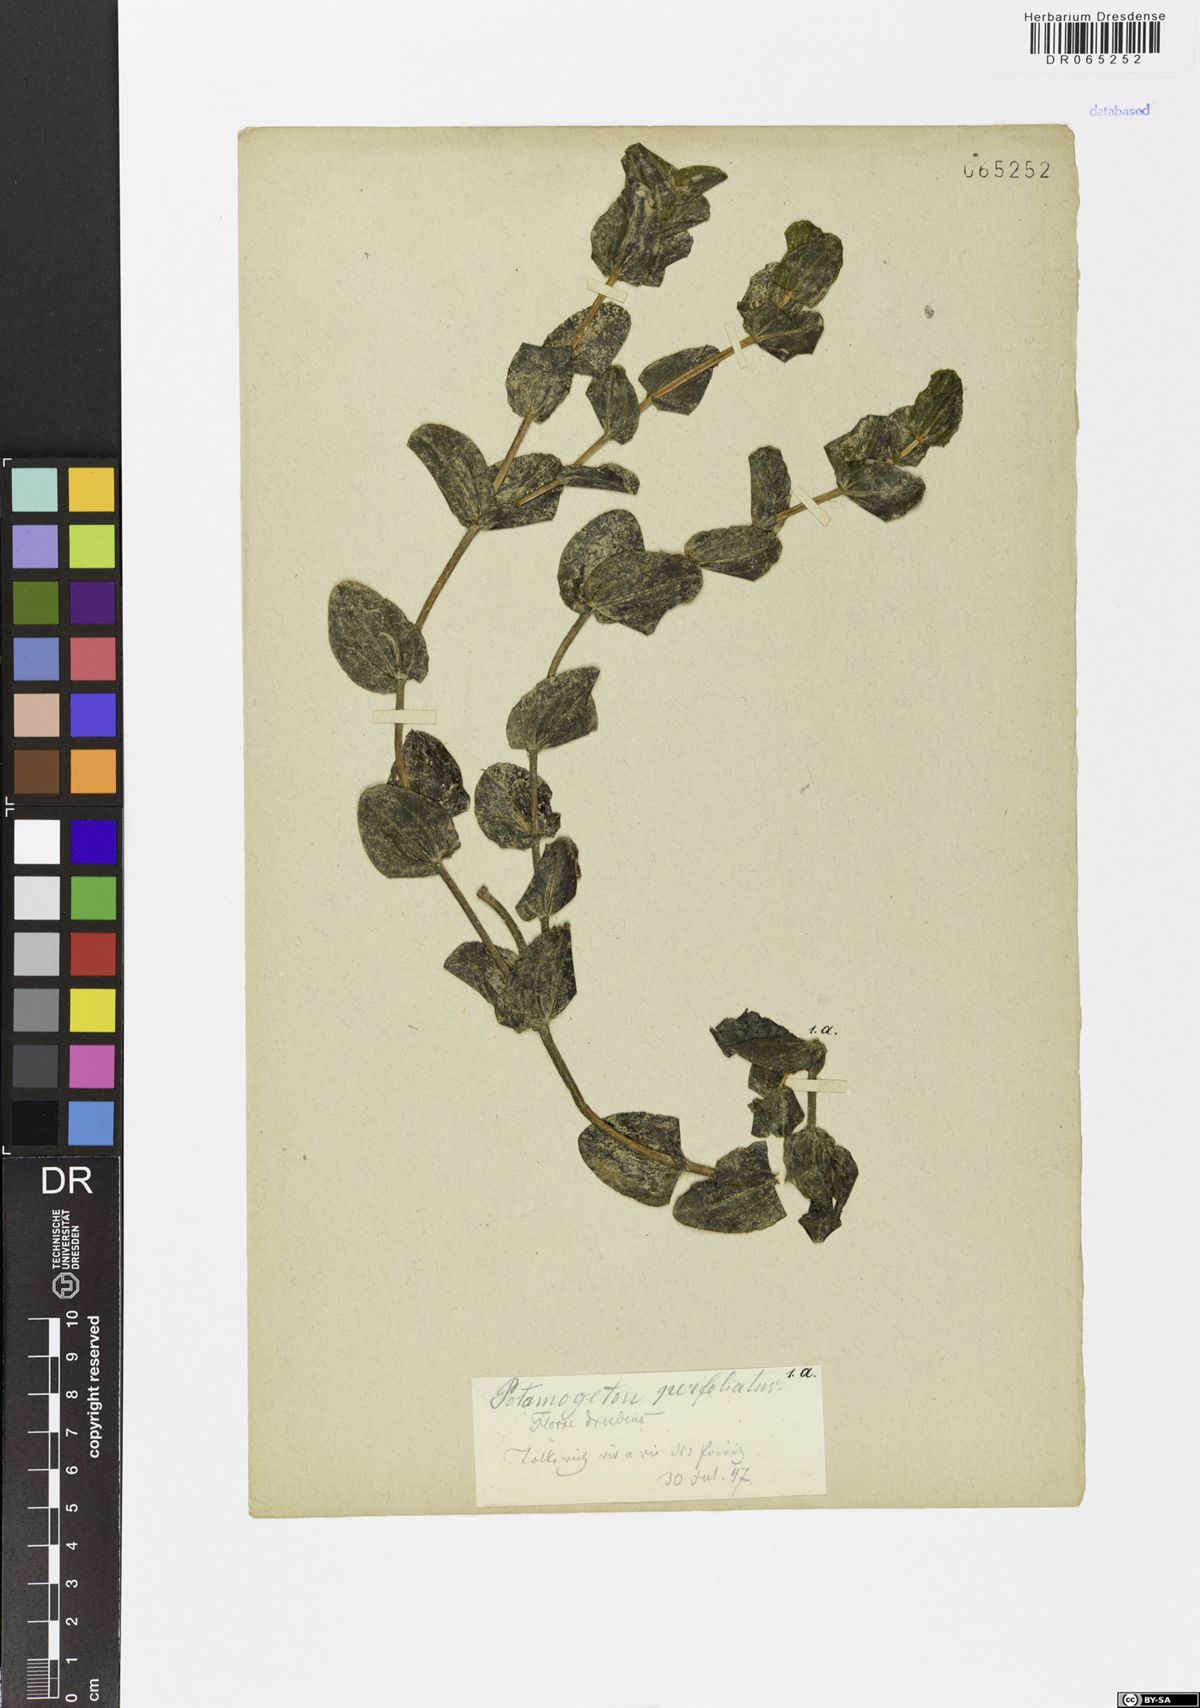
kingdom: Plantae
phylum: Tracheophyta
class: Liliopsida
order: Alismatales
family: Potamogetonaceae
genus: Potamogeton
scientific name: Potamogeton perfoliatus
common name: Perfoliate pondweed
